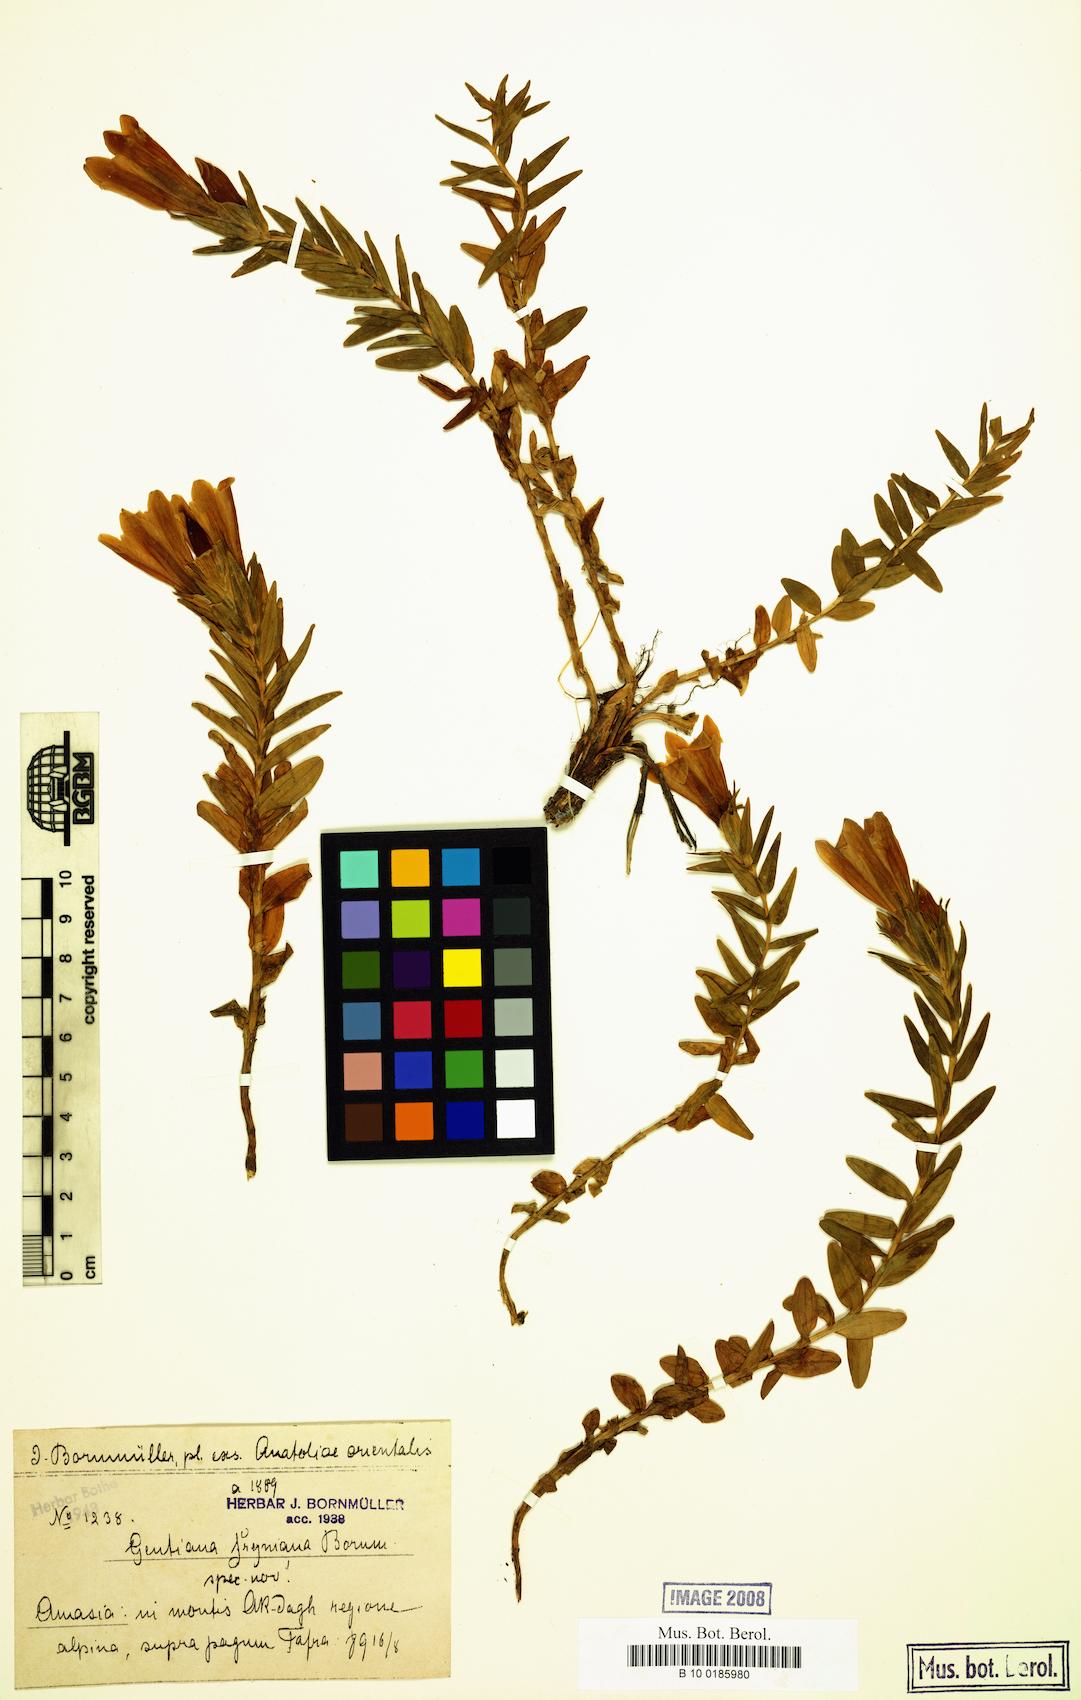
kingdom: Plantae
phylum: Tracheophyta
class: Magnoliopsida
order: Gentianales
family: Gentianaceae
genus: Gentiana
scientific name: Gentiana septemfida
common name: Crested gentian
